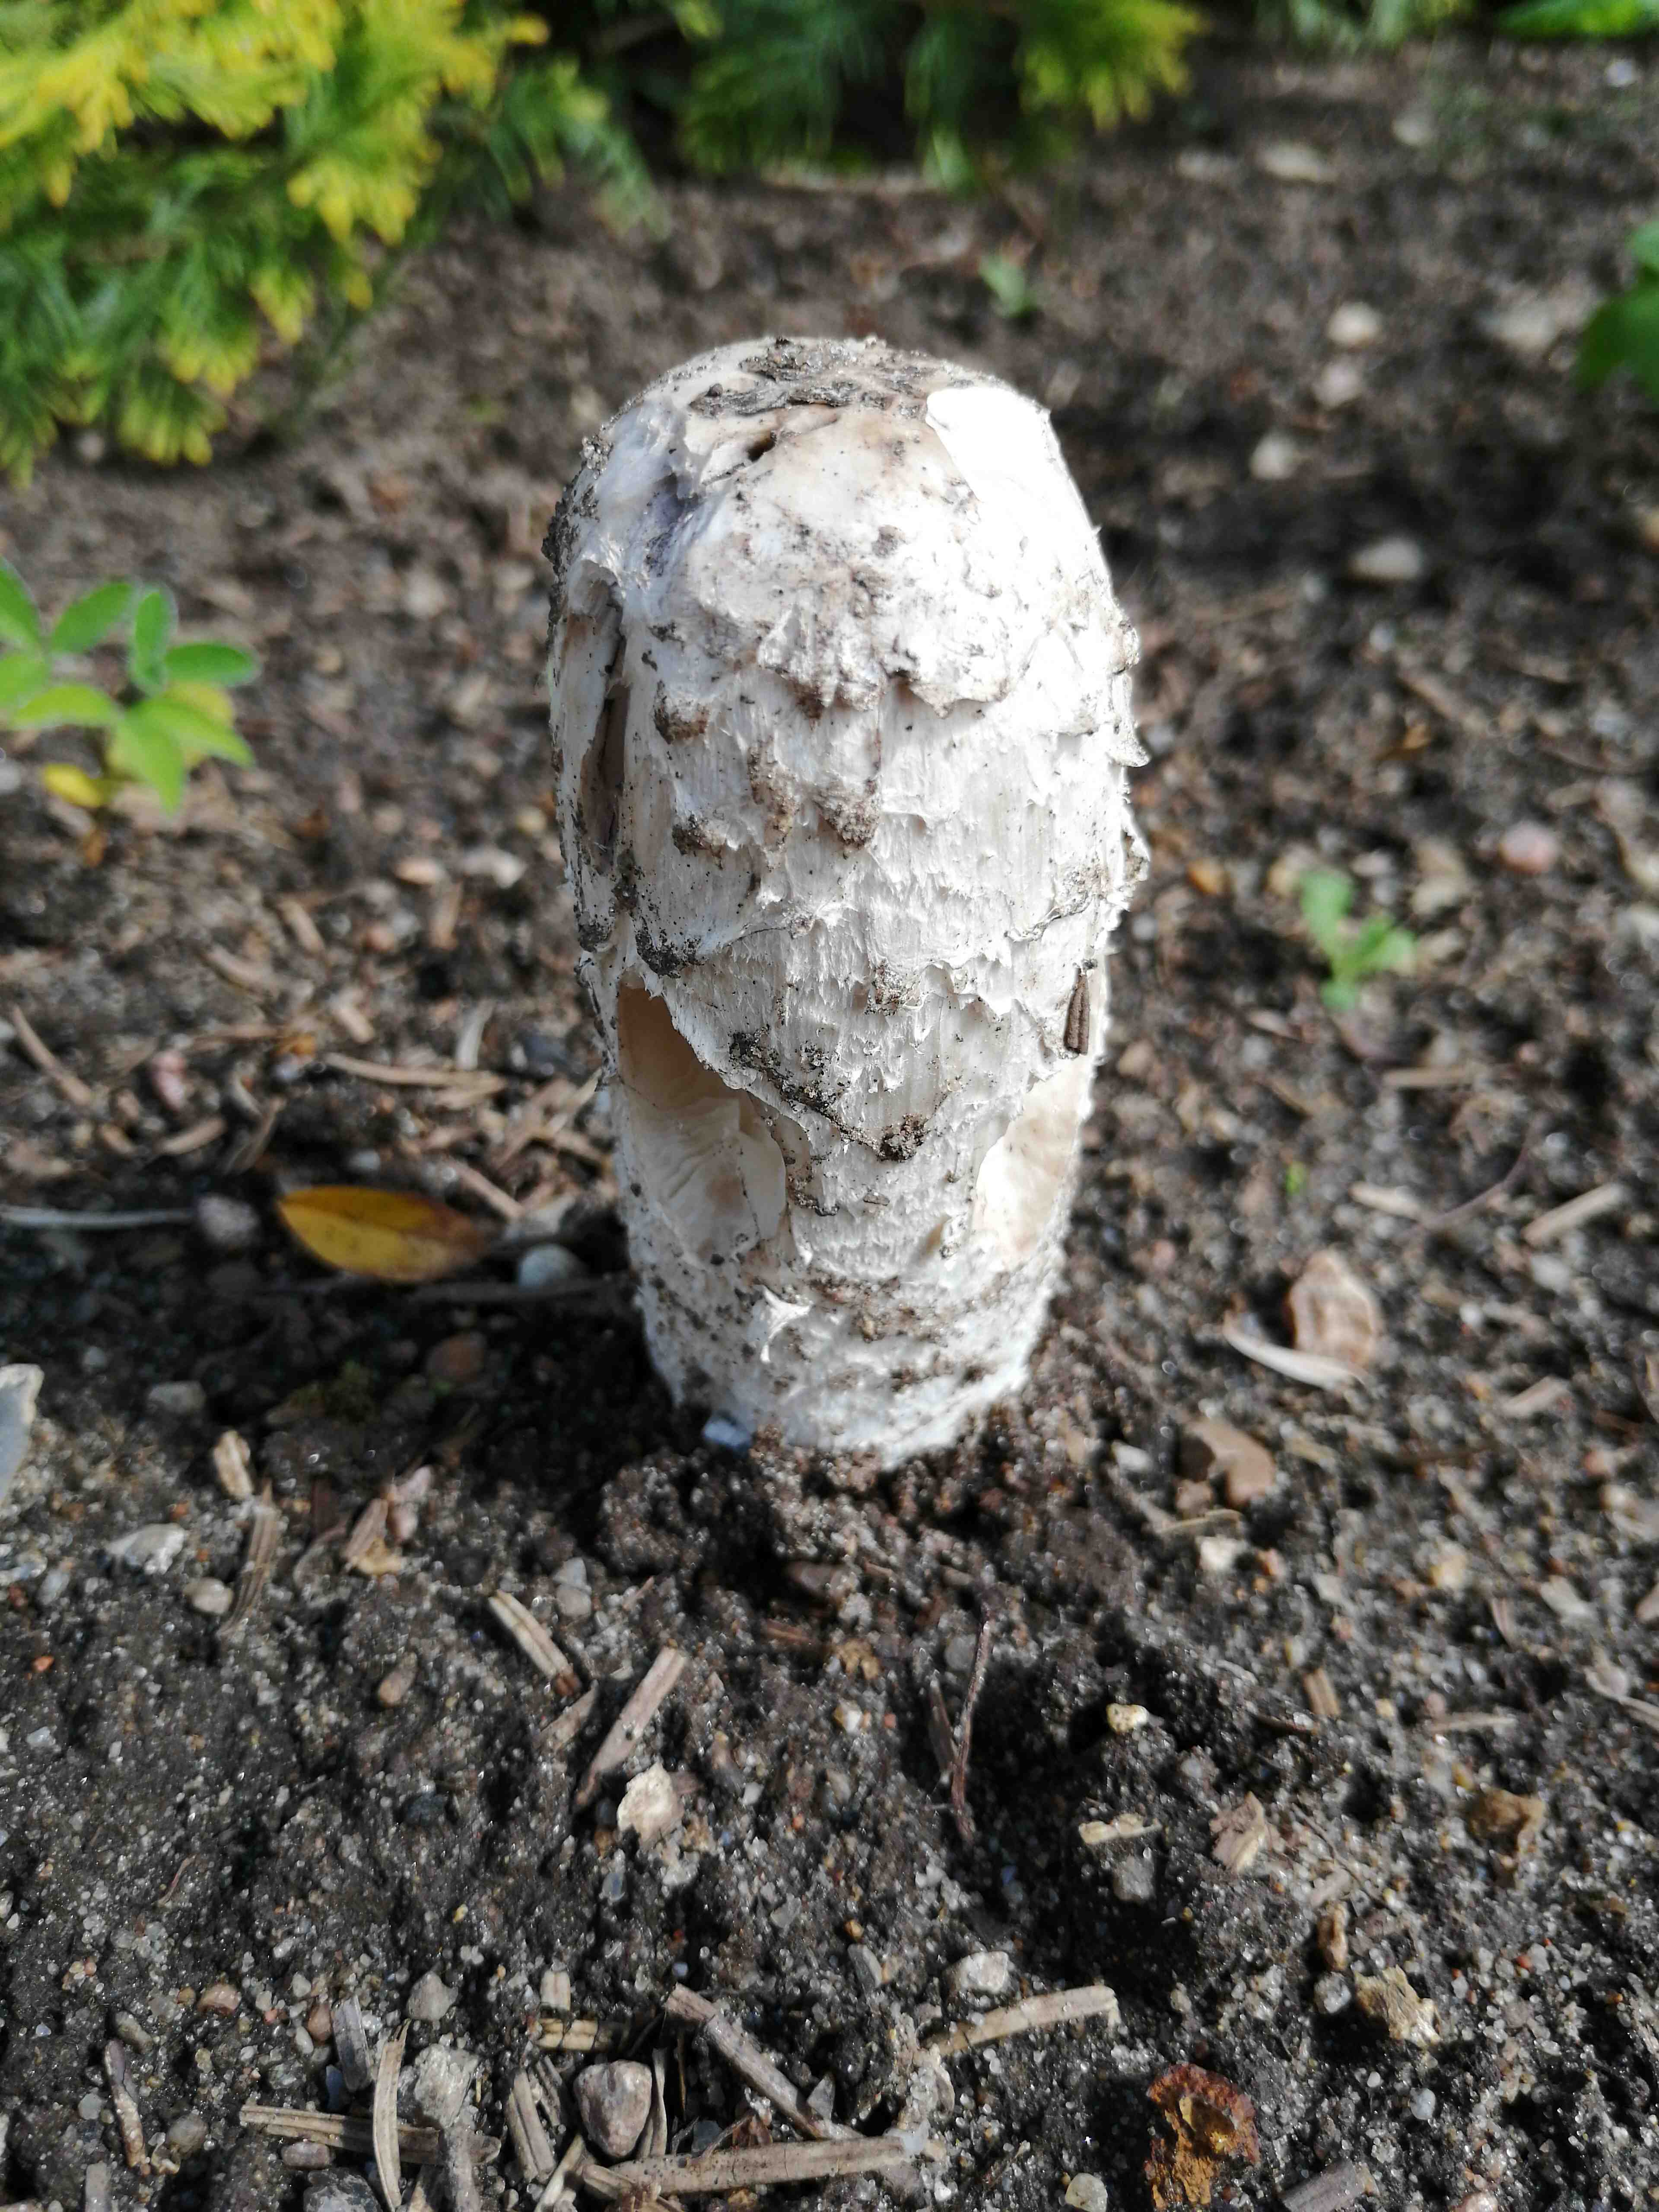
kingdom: Fungi
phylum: Basidiomycota
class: Agaricomycetes
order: Agaricales
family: Agaricaceae
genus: Coprinus
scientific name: Coprinus comatus
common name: stor parykhat
